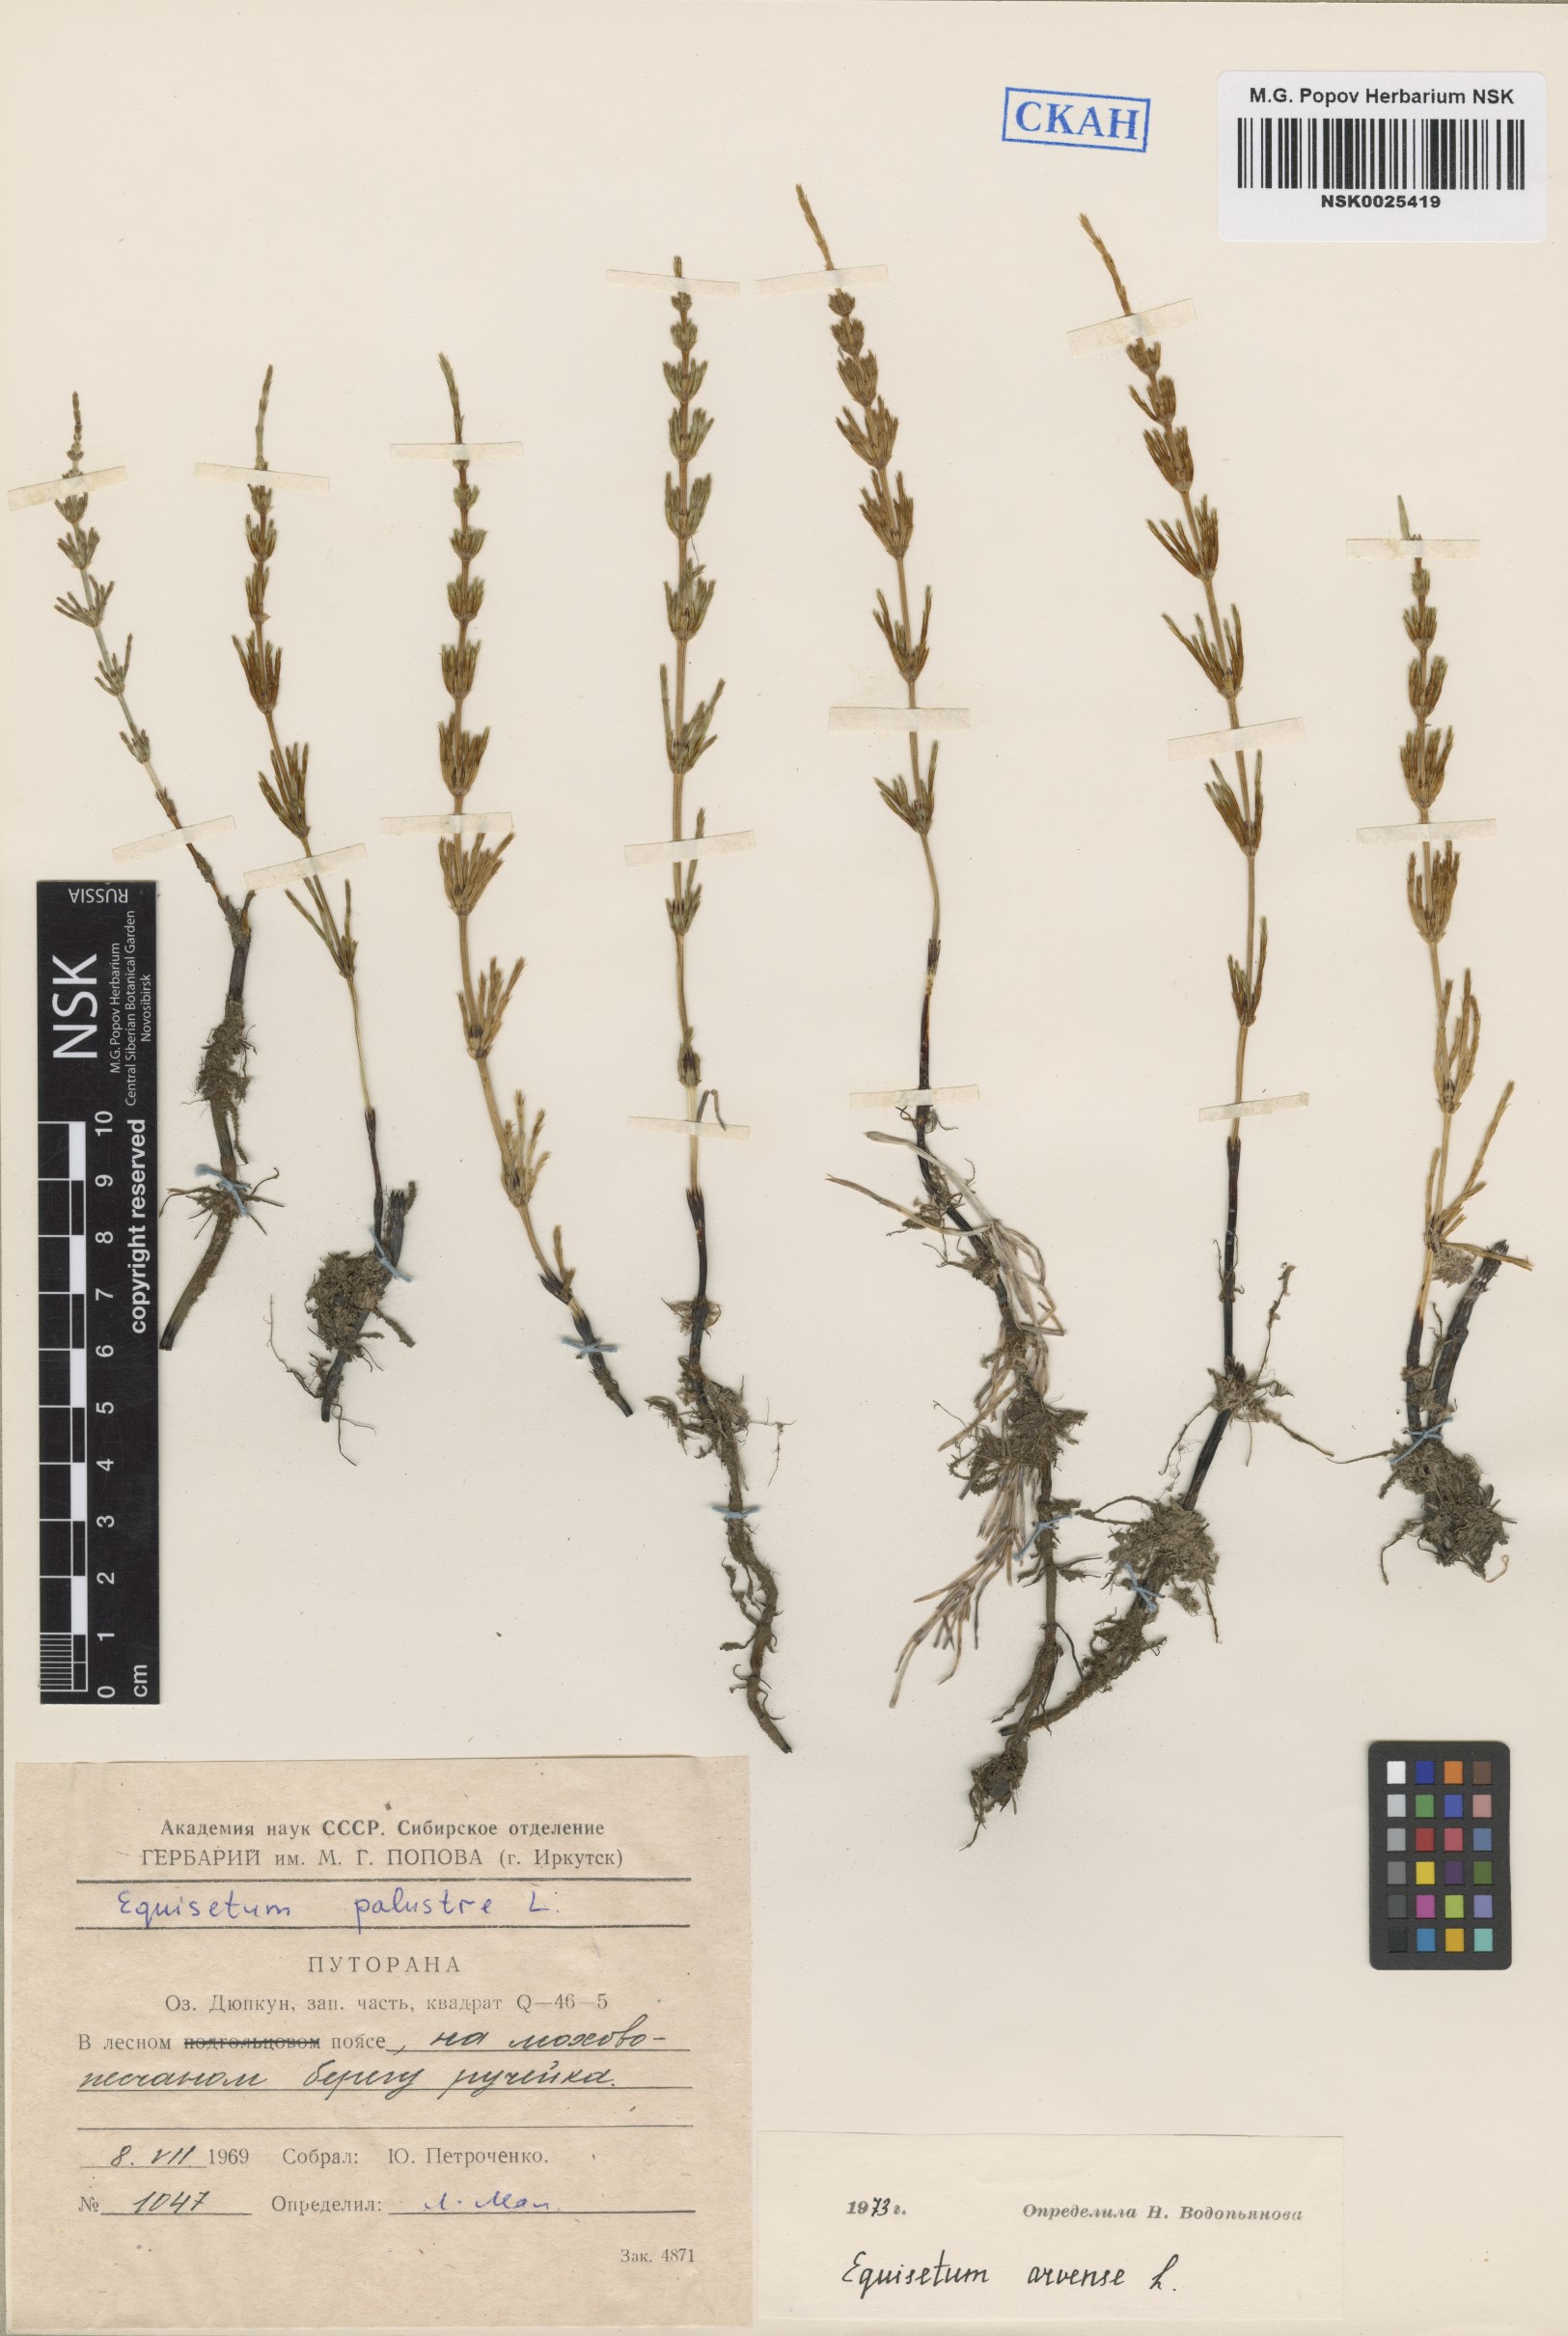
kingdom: Plantae
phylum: Tracheophyta
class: Polypodiopsida
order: Equisetales
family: Equisetaceae
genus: Equisetum
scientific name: Equisetum arvense
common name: Field horsetail
